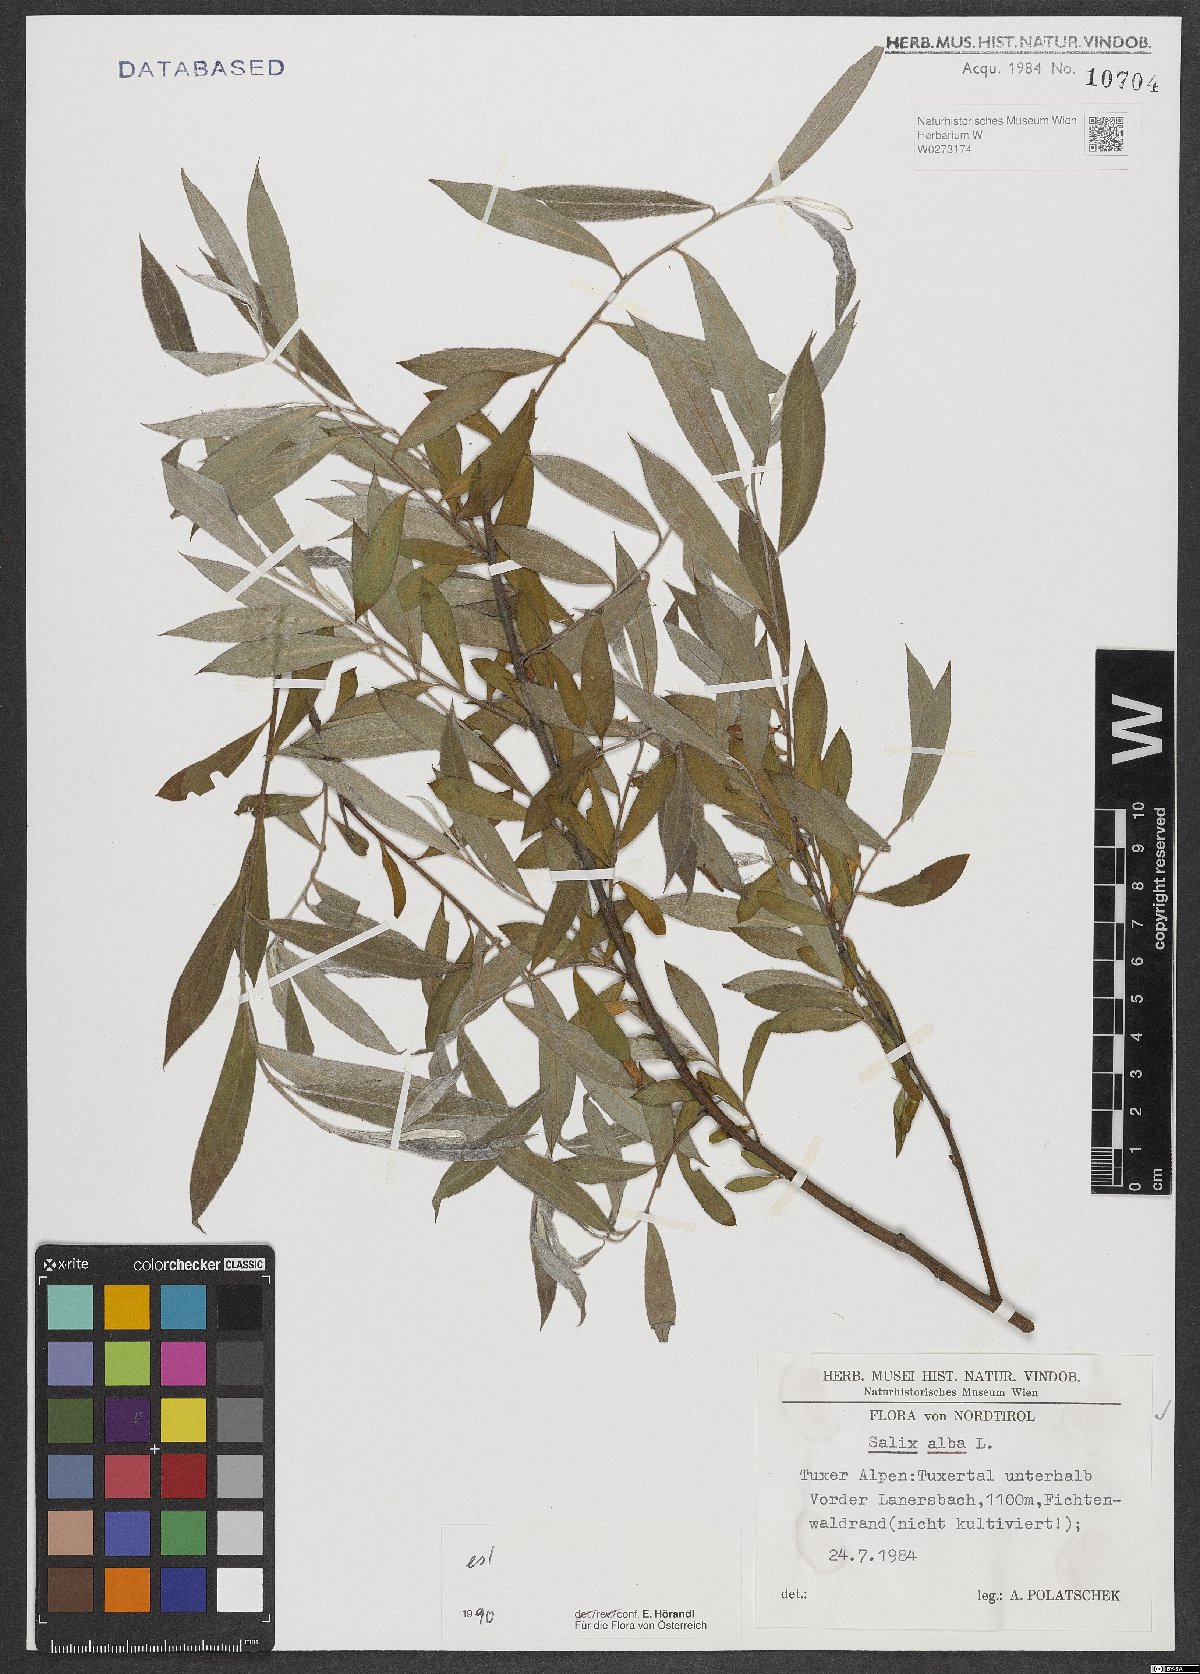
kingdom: Plantae
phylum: Tracheophyta
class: Magnoliopsida
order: Malpighiales
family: Salicaceae
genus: Salix
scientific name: Salix alba
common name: White willow
